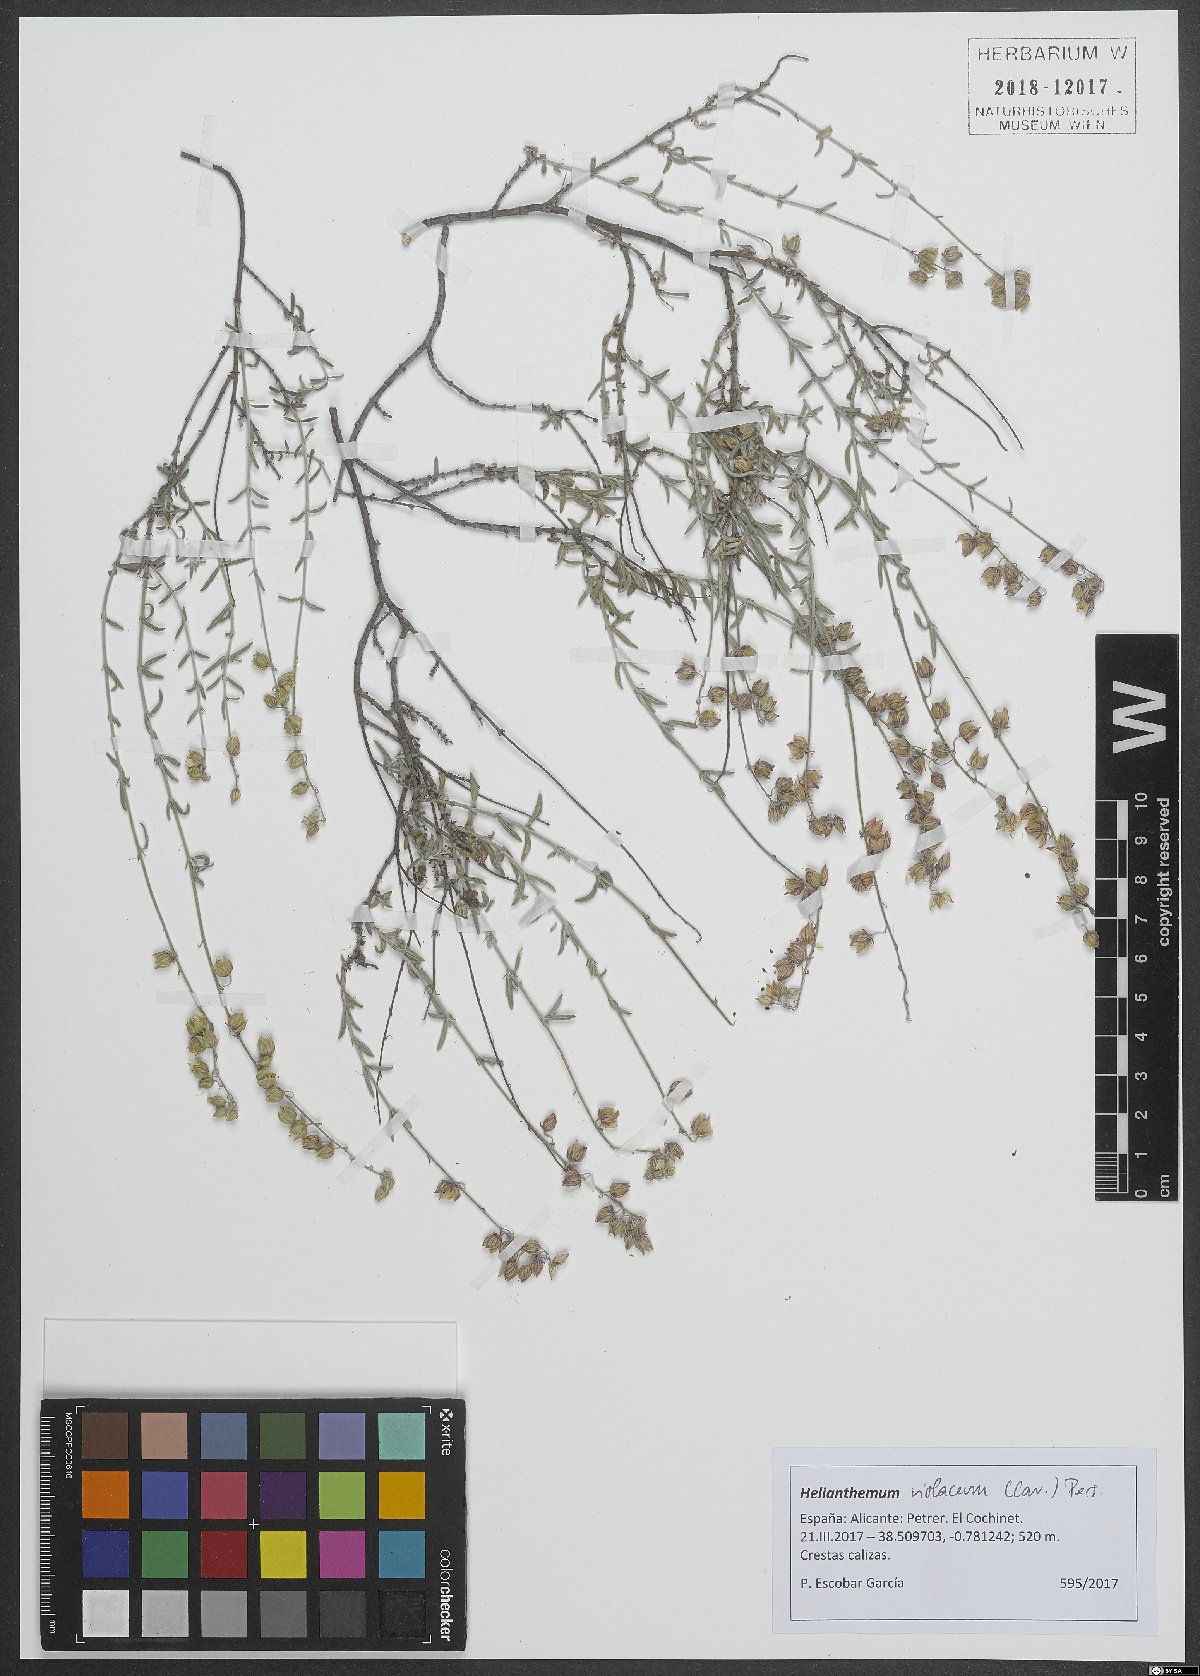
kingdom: Plantae
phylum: Tracheophyta
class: Magnoliopsida
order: Malvales
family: Cistaceae
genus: Helianthemum
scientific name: Helianthemum violaceum
